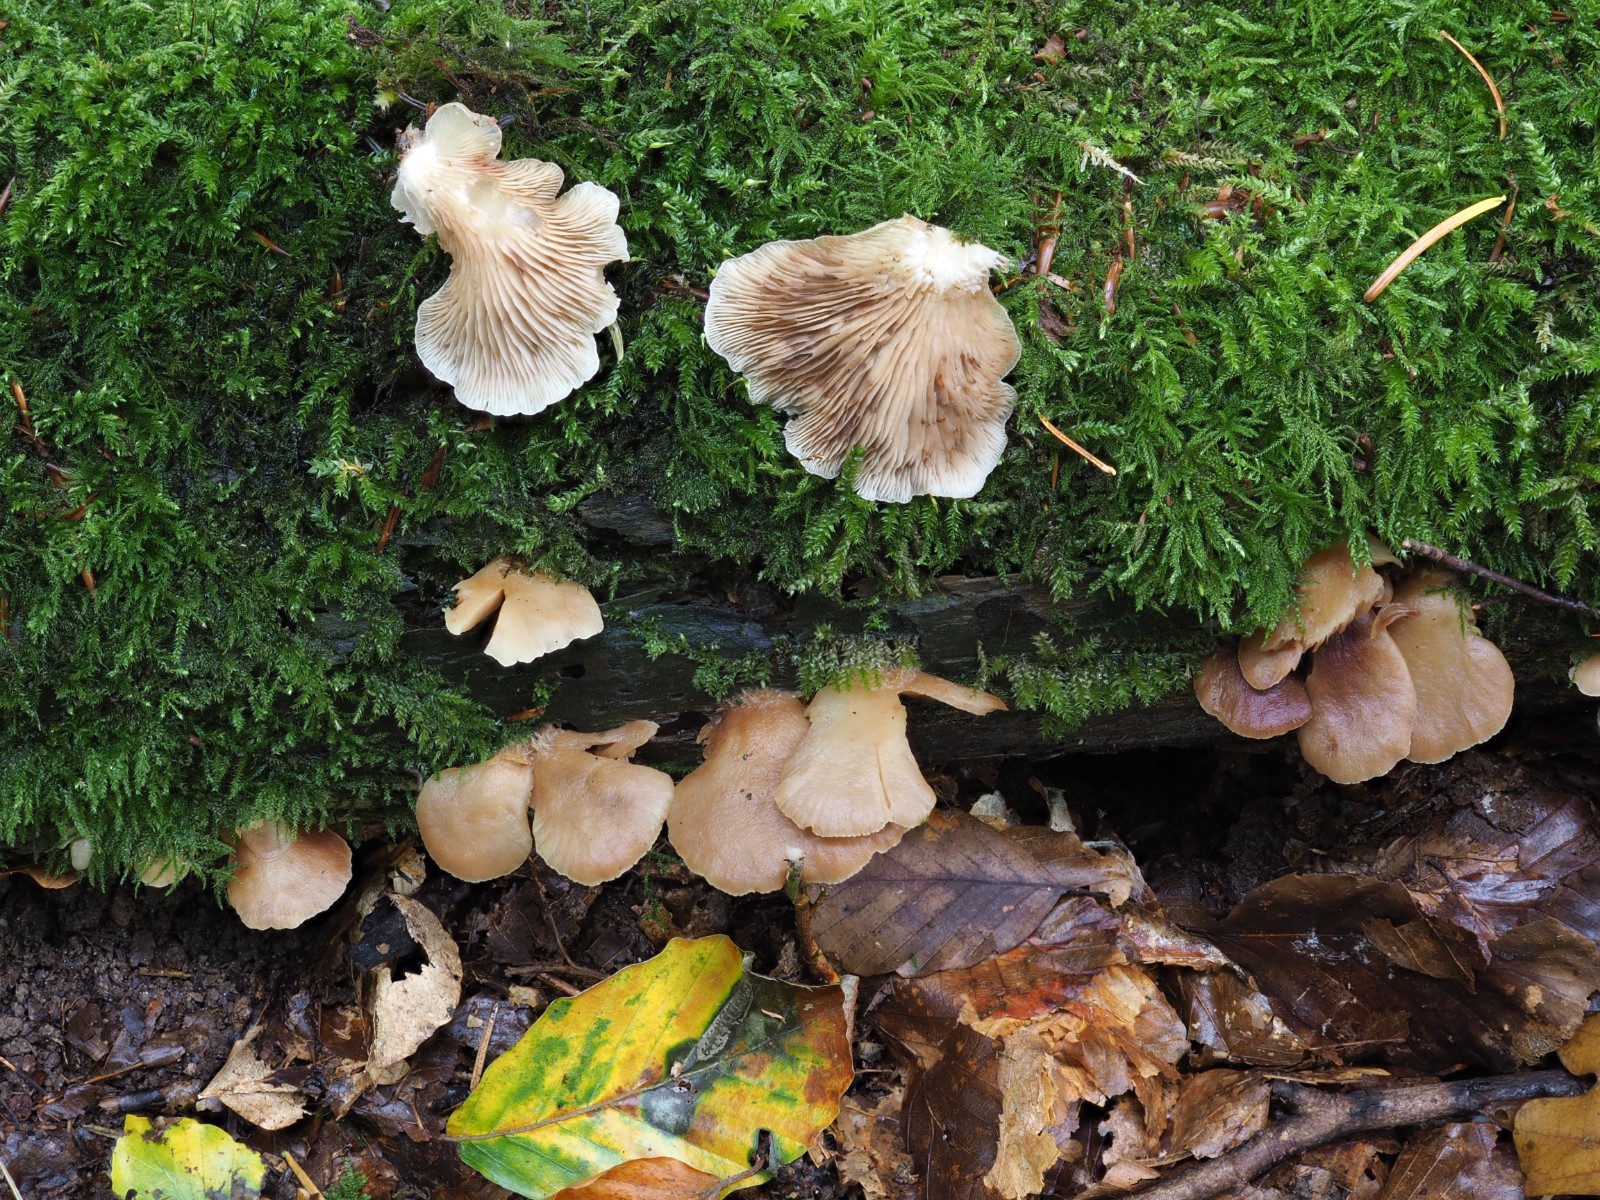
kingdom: Fungi
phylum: Basidiomycota
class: Agaricomycetes
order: Agaricales
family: Crepidotaceae
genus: Crepidotus
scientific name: Crepidotus applanatus
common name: tvefarvet muslingesvamp
